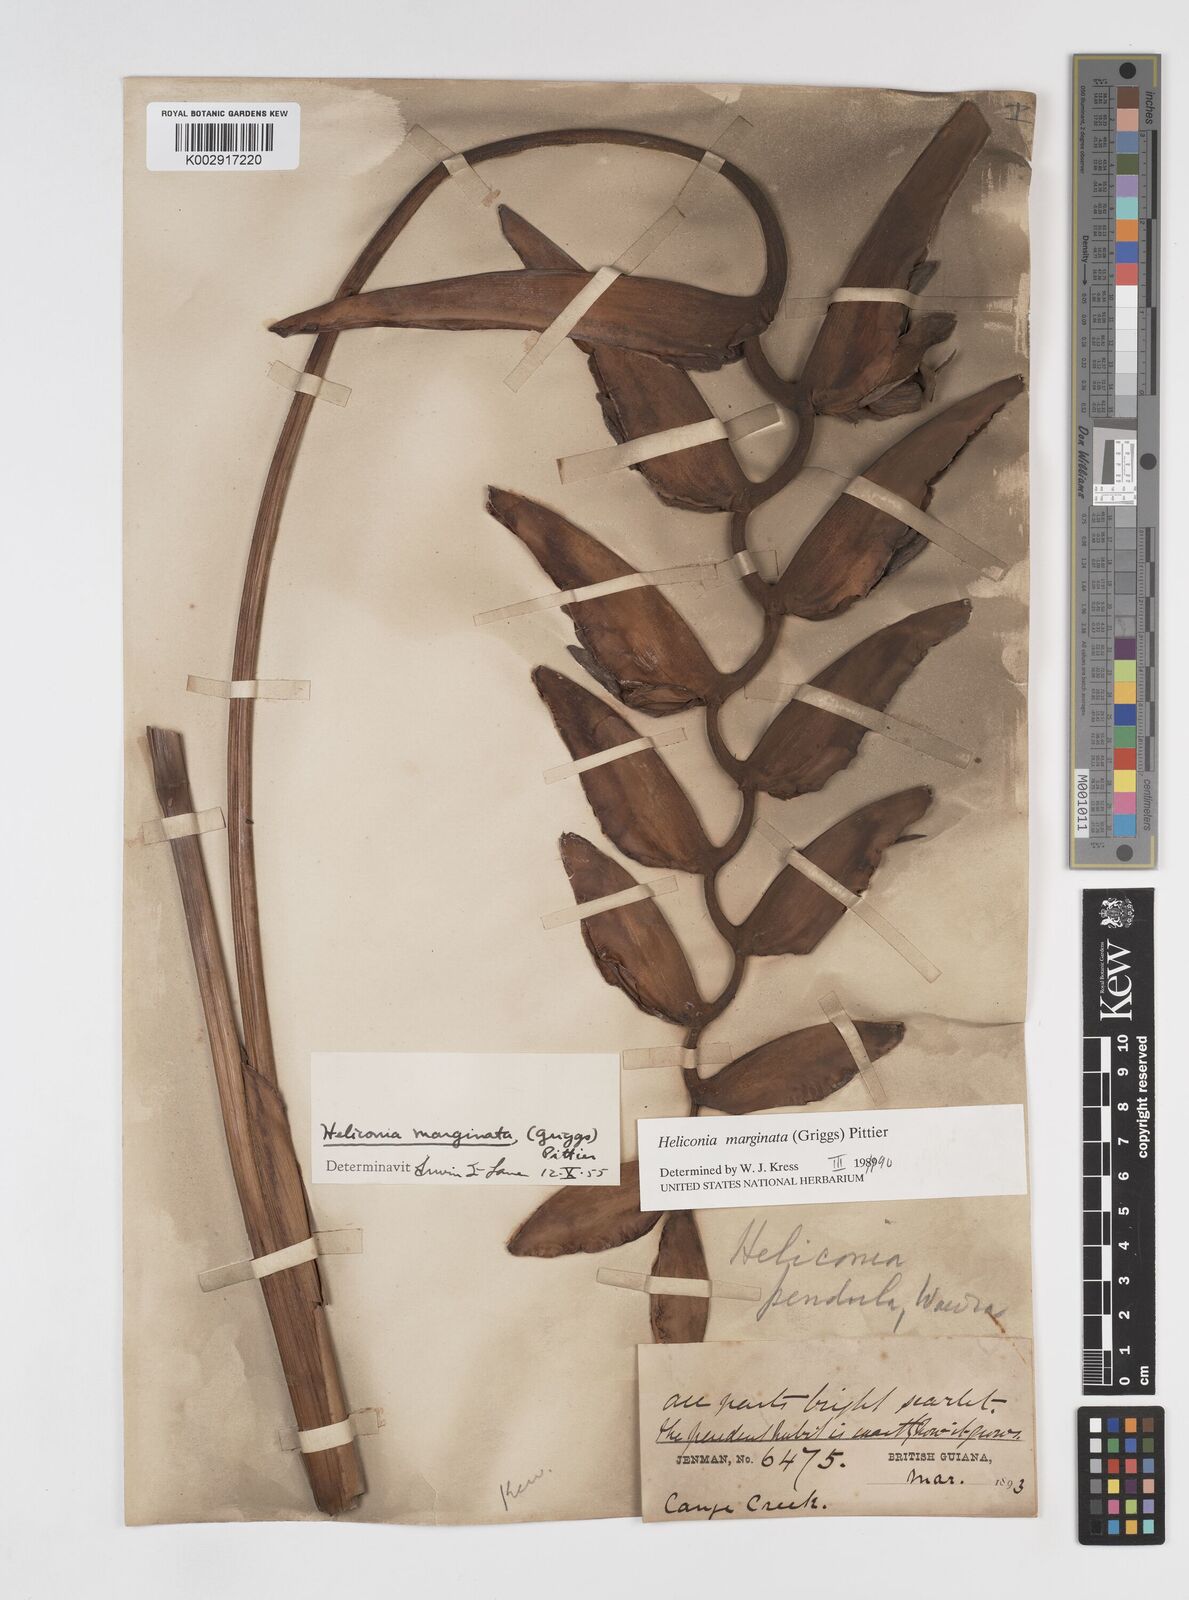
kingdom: Plantae
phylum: Tracheophyta
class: Liliopsida
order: Zingiberales
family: Heliconiaceae
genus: Heliconia
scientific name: Heliconia marginata
